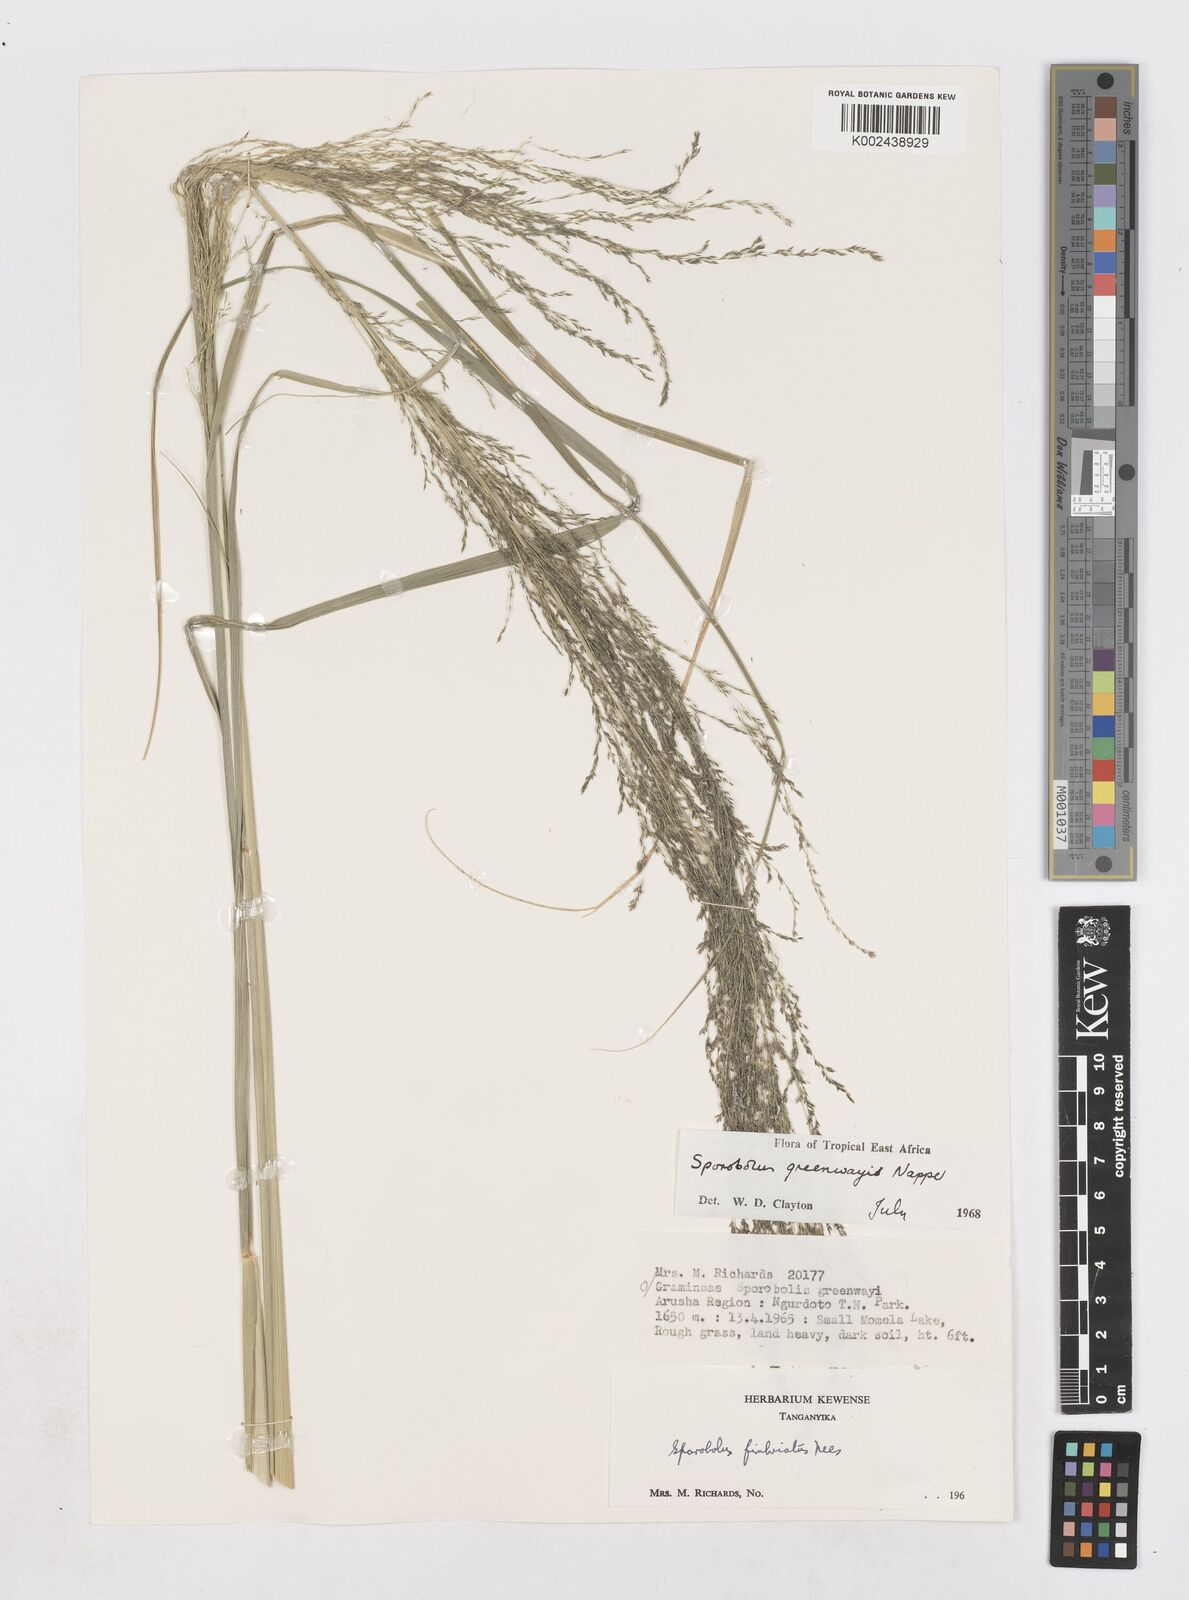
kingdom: Plantae
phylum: Tracheophyta
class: Liliopsida
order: Poales
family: Poaceae
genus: Sporobolus
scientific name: Sporobolus macranthelus
